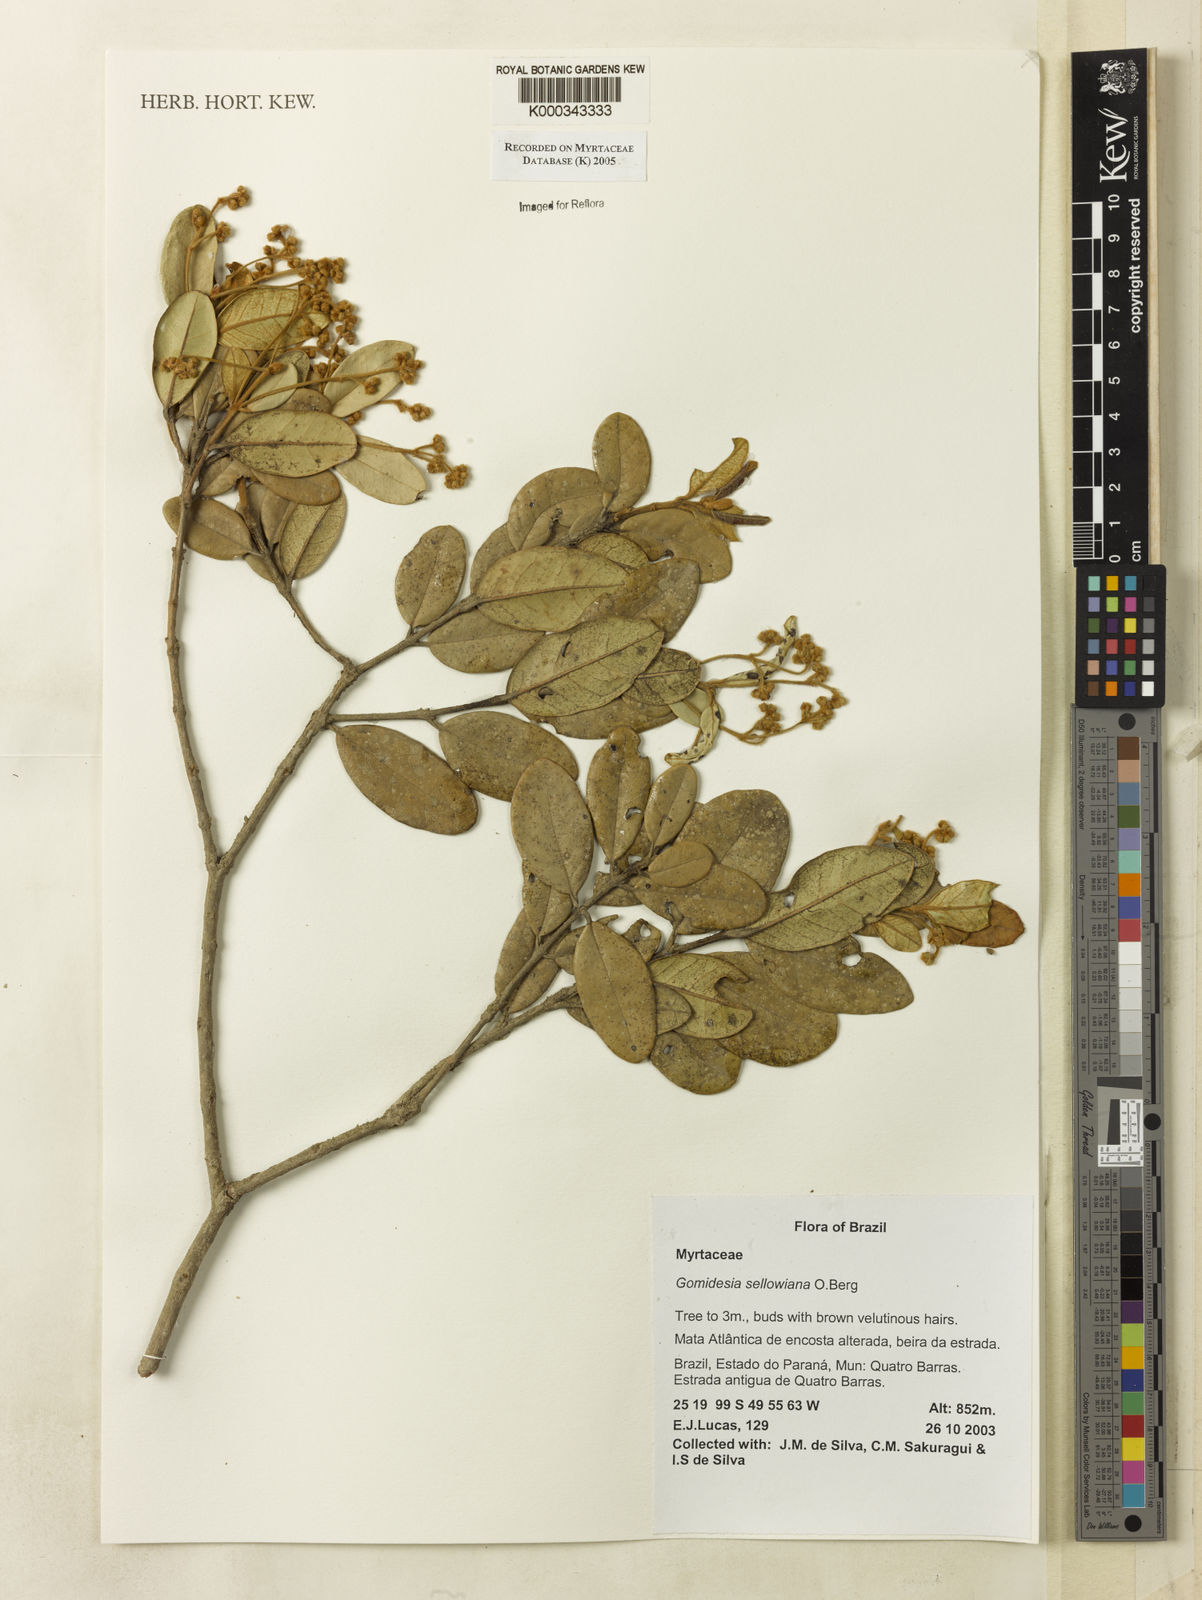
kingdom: Plantae
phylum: Tracheophyta
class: Magnoliopsida
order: Myrtales
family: Myrtaceae
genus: Myrcia
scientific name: Myrcia hartwegiana
